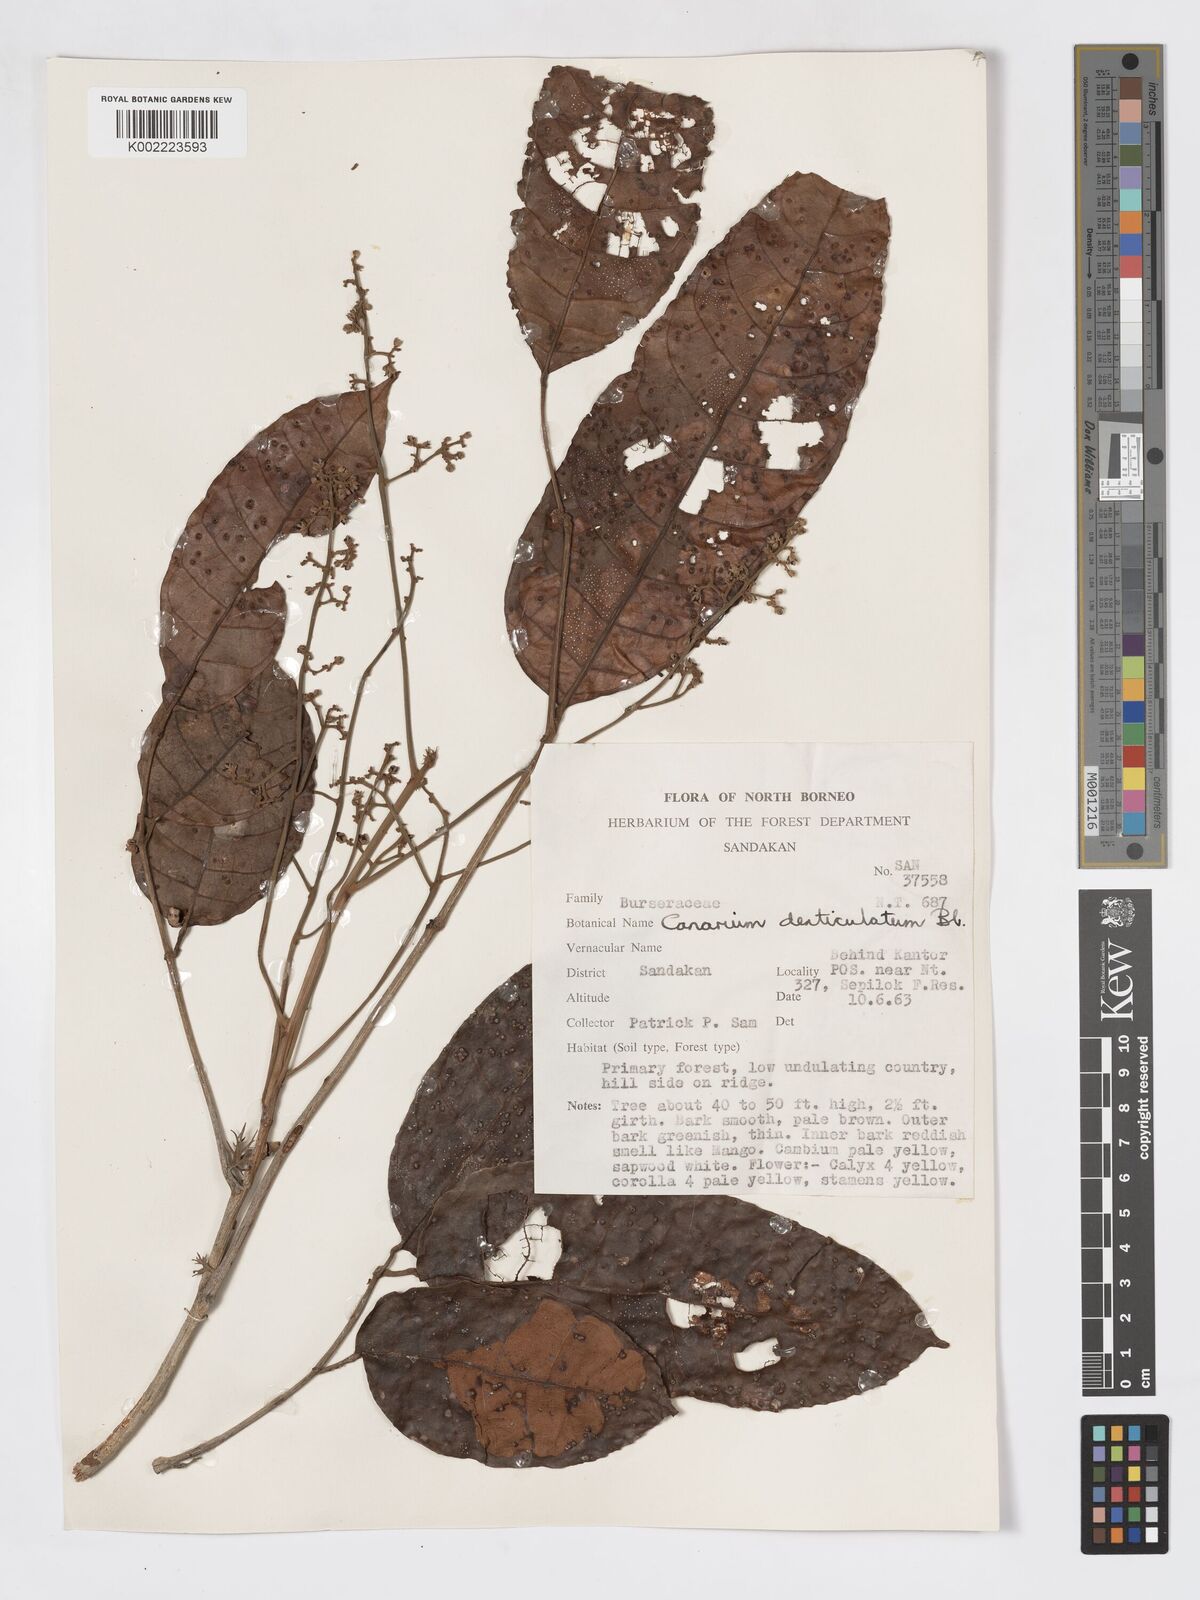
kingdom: Plantae
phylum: Tracheophyta
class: Magnoliopsida
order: Sapindales
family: Burseraceae
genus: Canarium
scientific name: Canarium denticulatum
